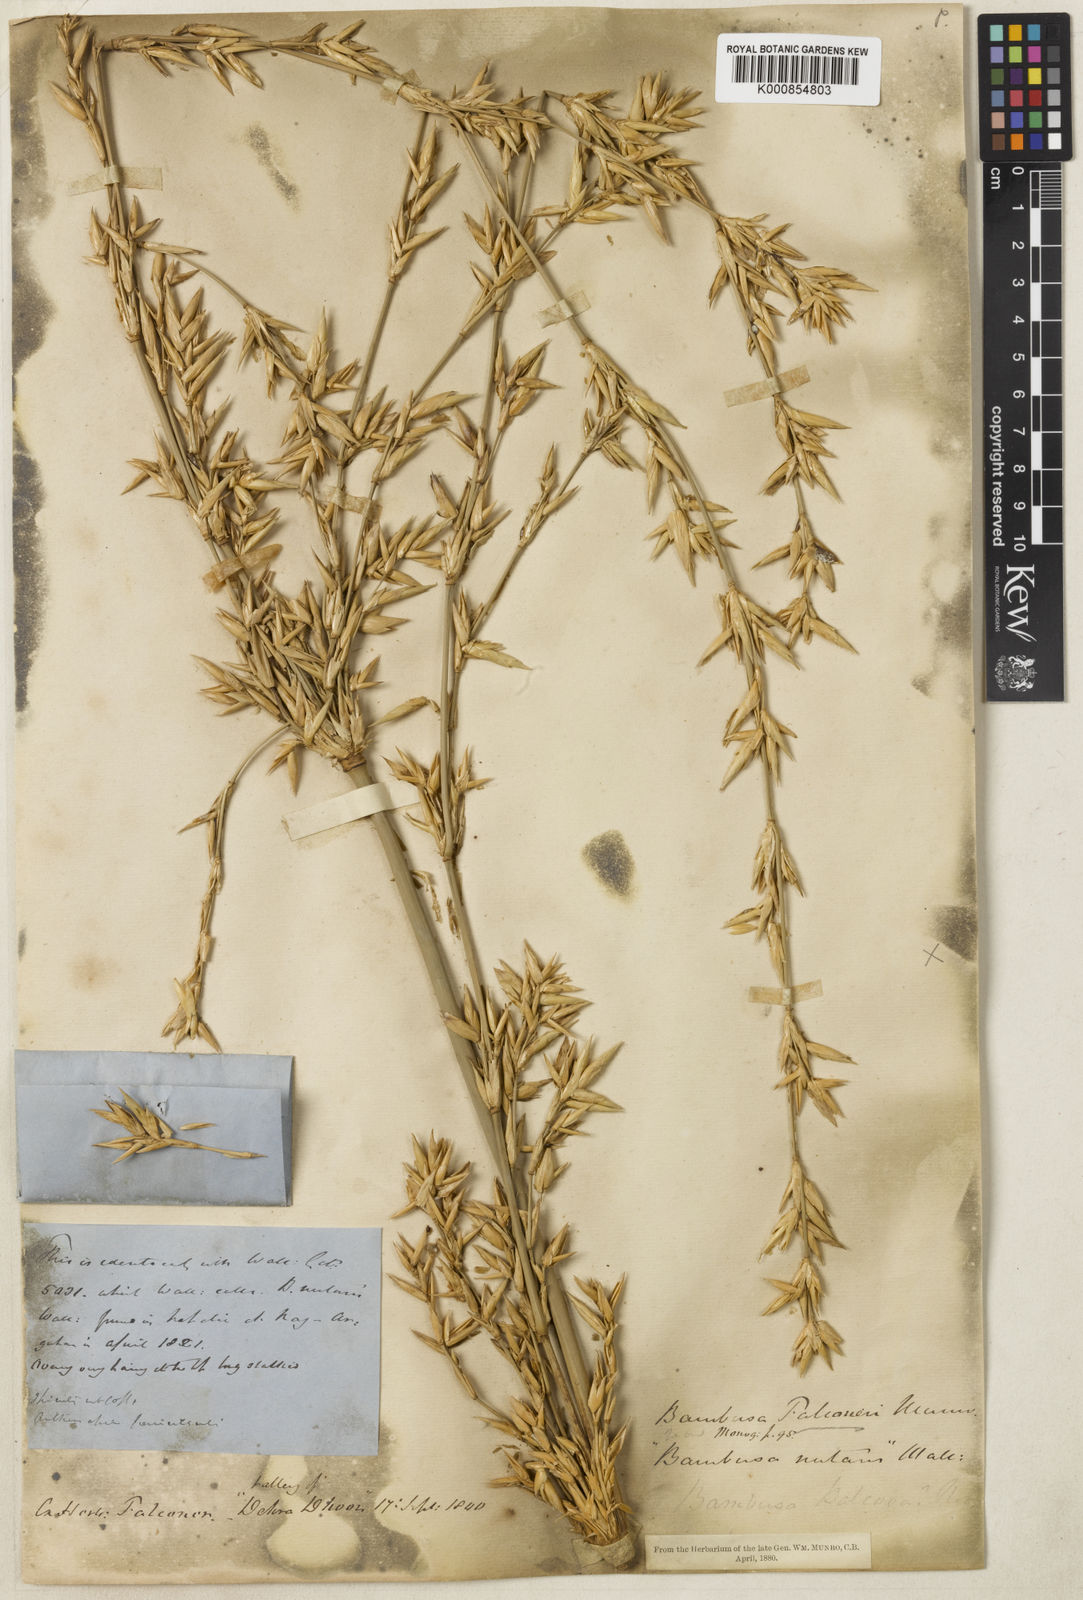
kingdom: Plantae
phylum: Tracheophyta
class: Liliopsida
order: Poales
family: Poaceae
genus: Bambusa
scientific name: Bambusa nutans
